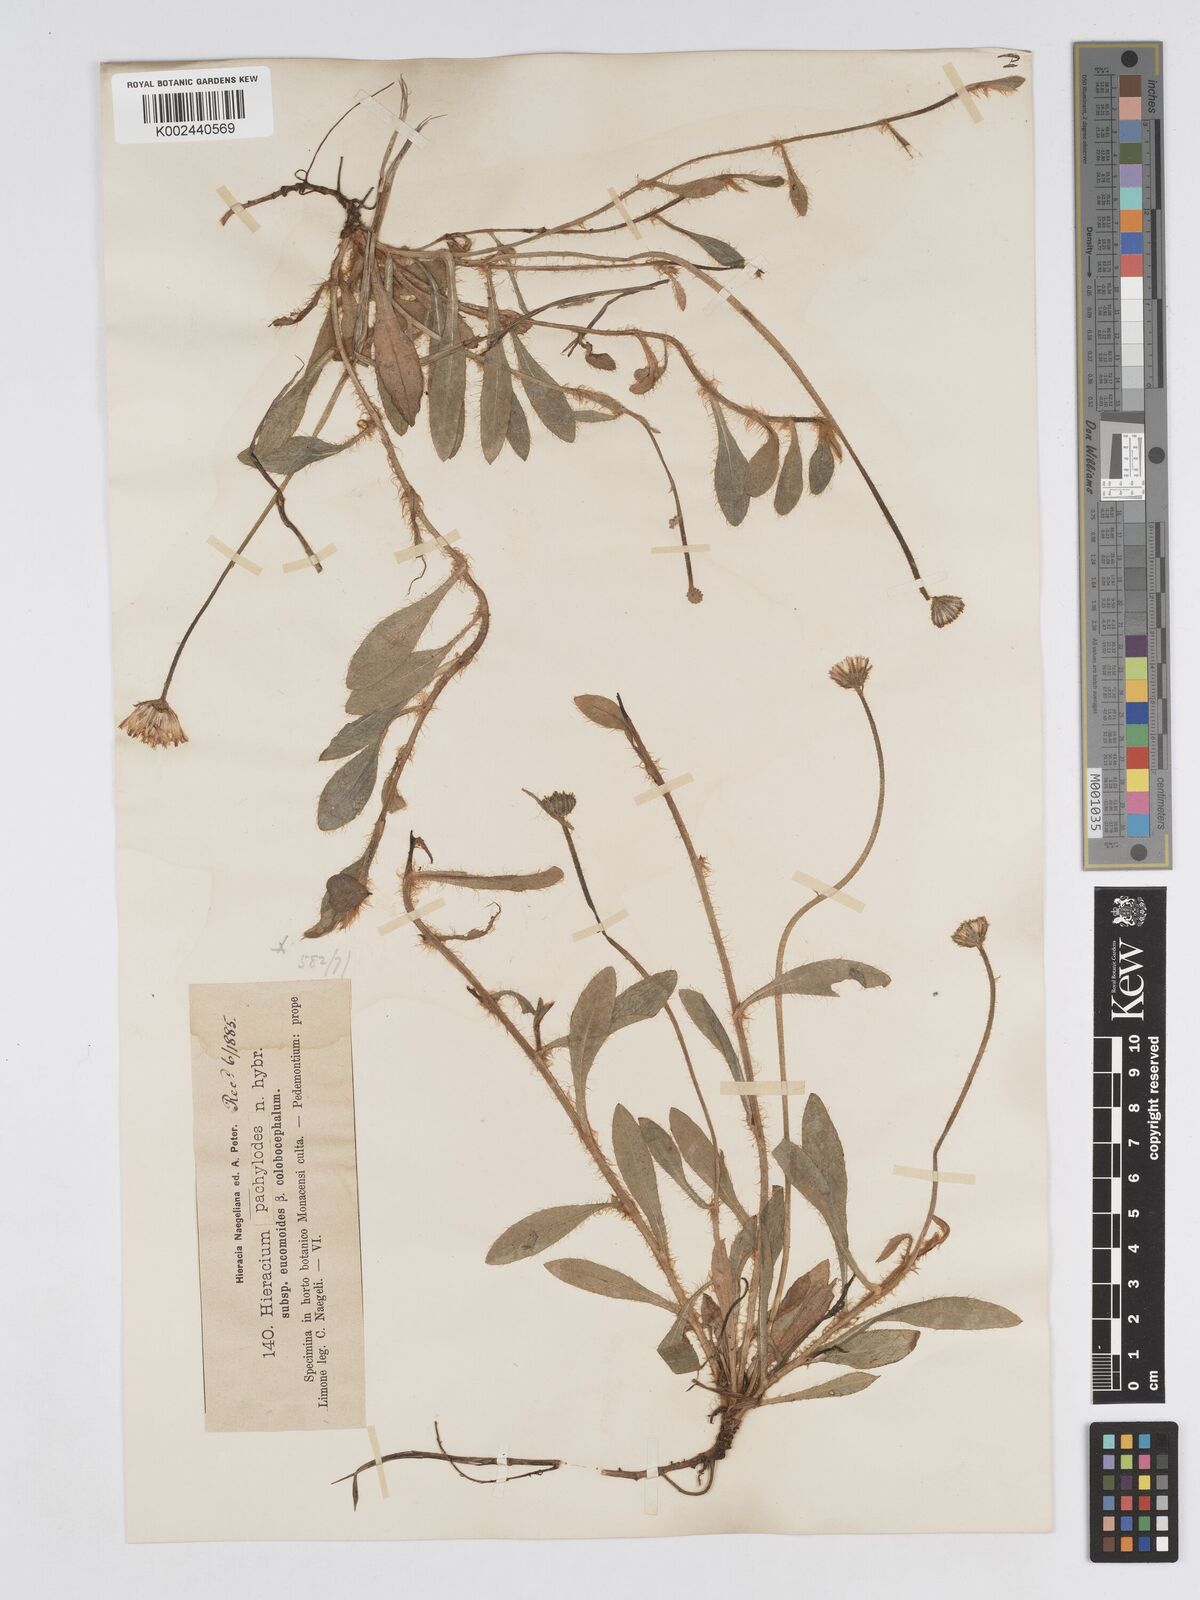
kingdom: Plantae
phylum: Tracheophyta
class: Magnoliopsida
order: Asterales
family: Asteraceae
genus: Pilosella
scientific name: Pilosella longisquama
